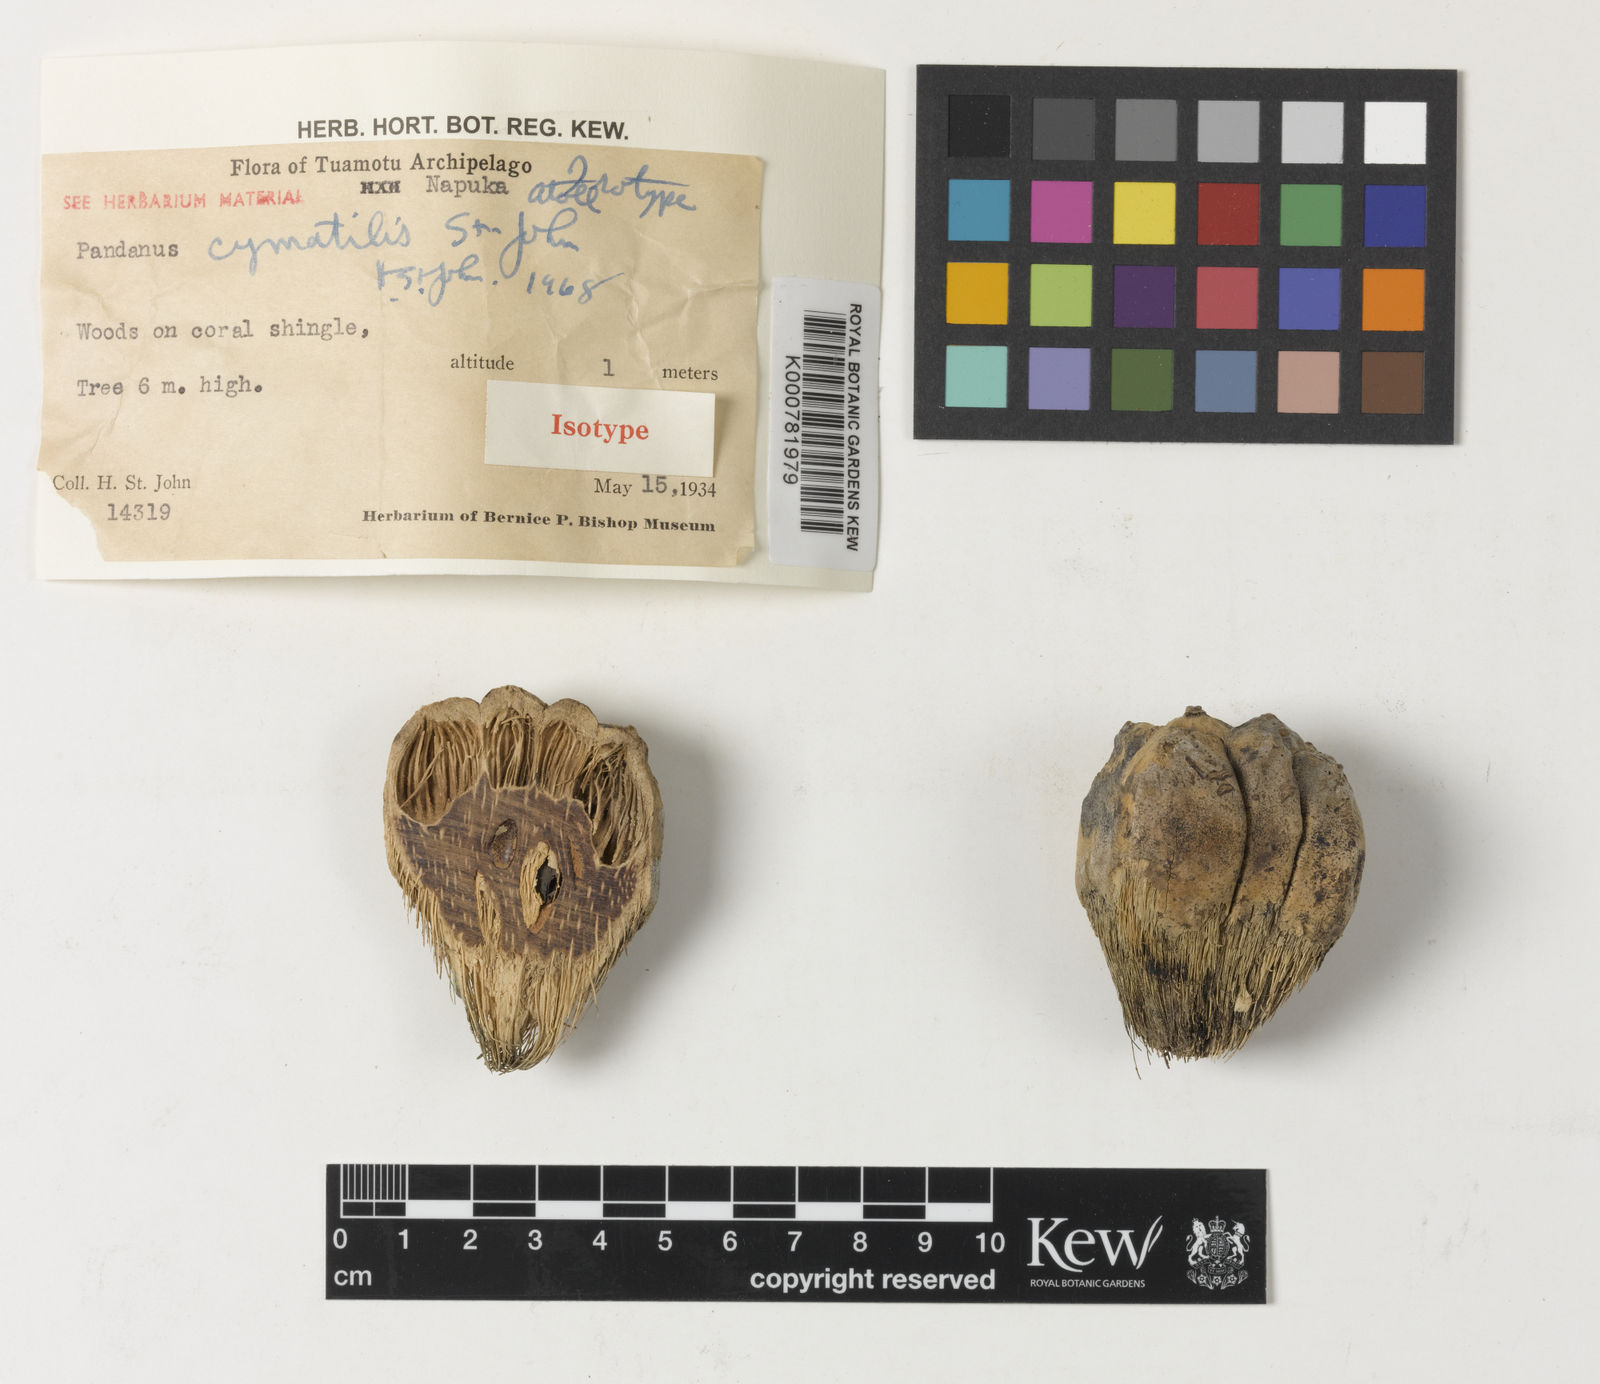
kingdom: Plantae
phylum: Tracheophyta
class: Liliopsida
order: Pandanales
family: Pandanaceae
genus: Pandanus
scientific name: Pandanus
